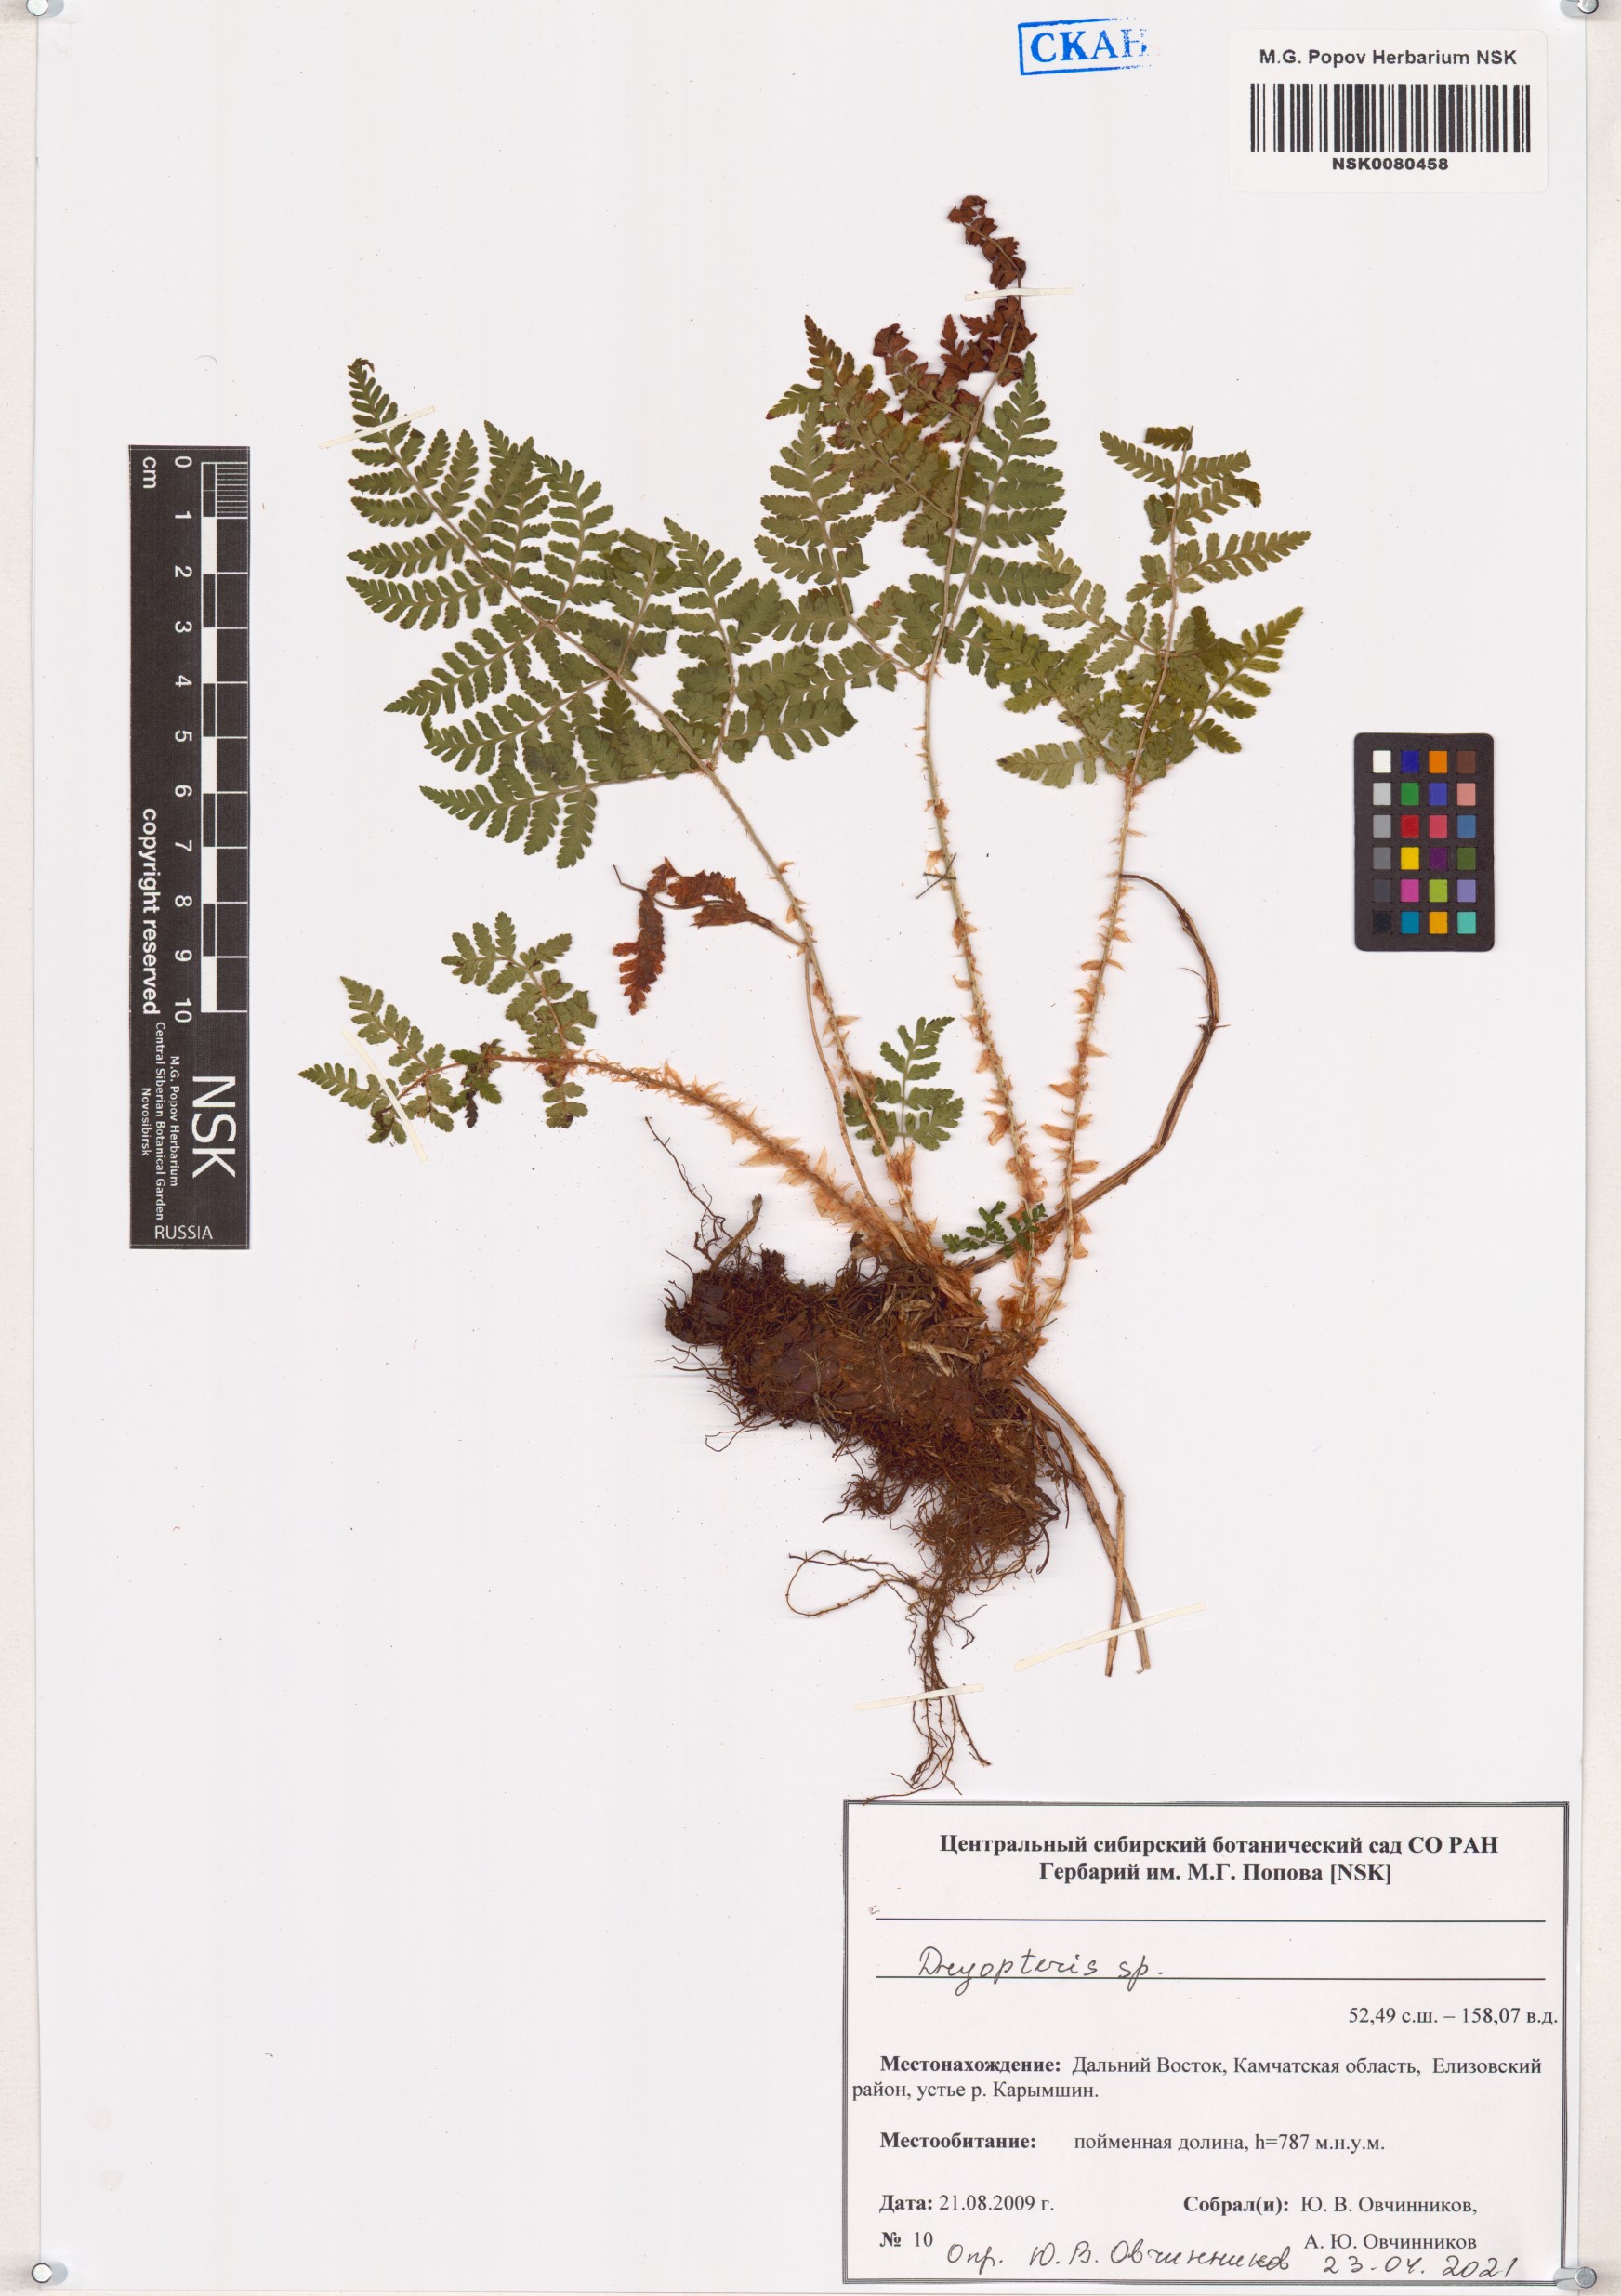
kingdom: Plantae
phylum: Tracheophyta
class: Polypodiopsida
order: Polypodiales
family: Dryopteridaceae
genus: Dryopteris
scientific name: Dryopteris
